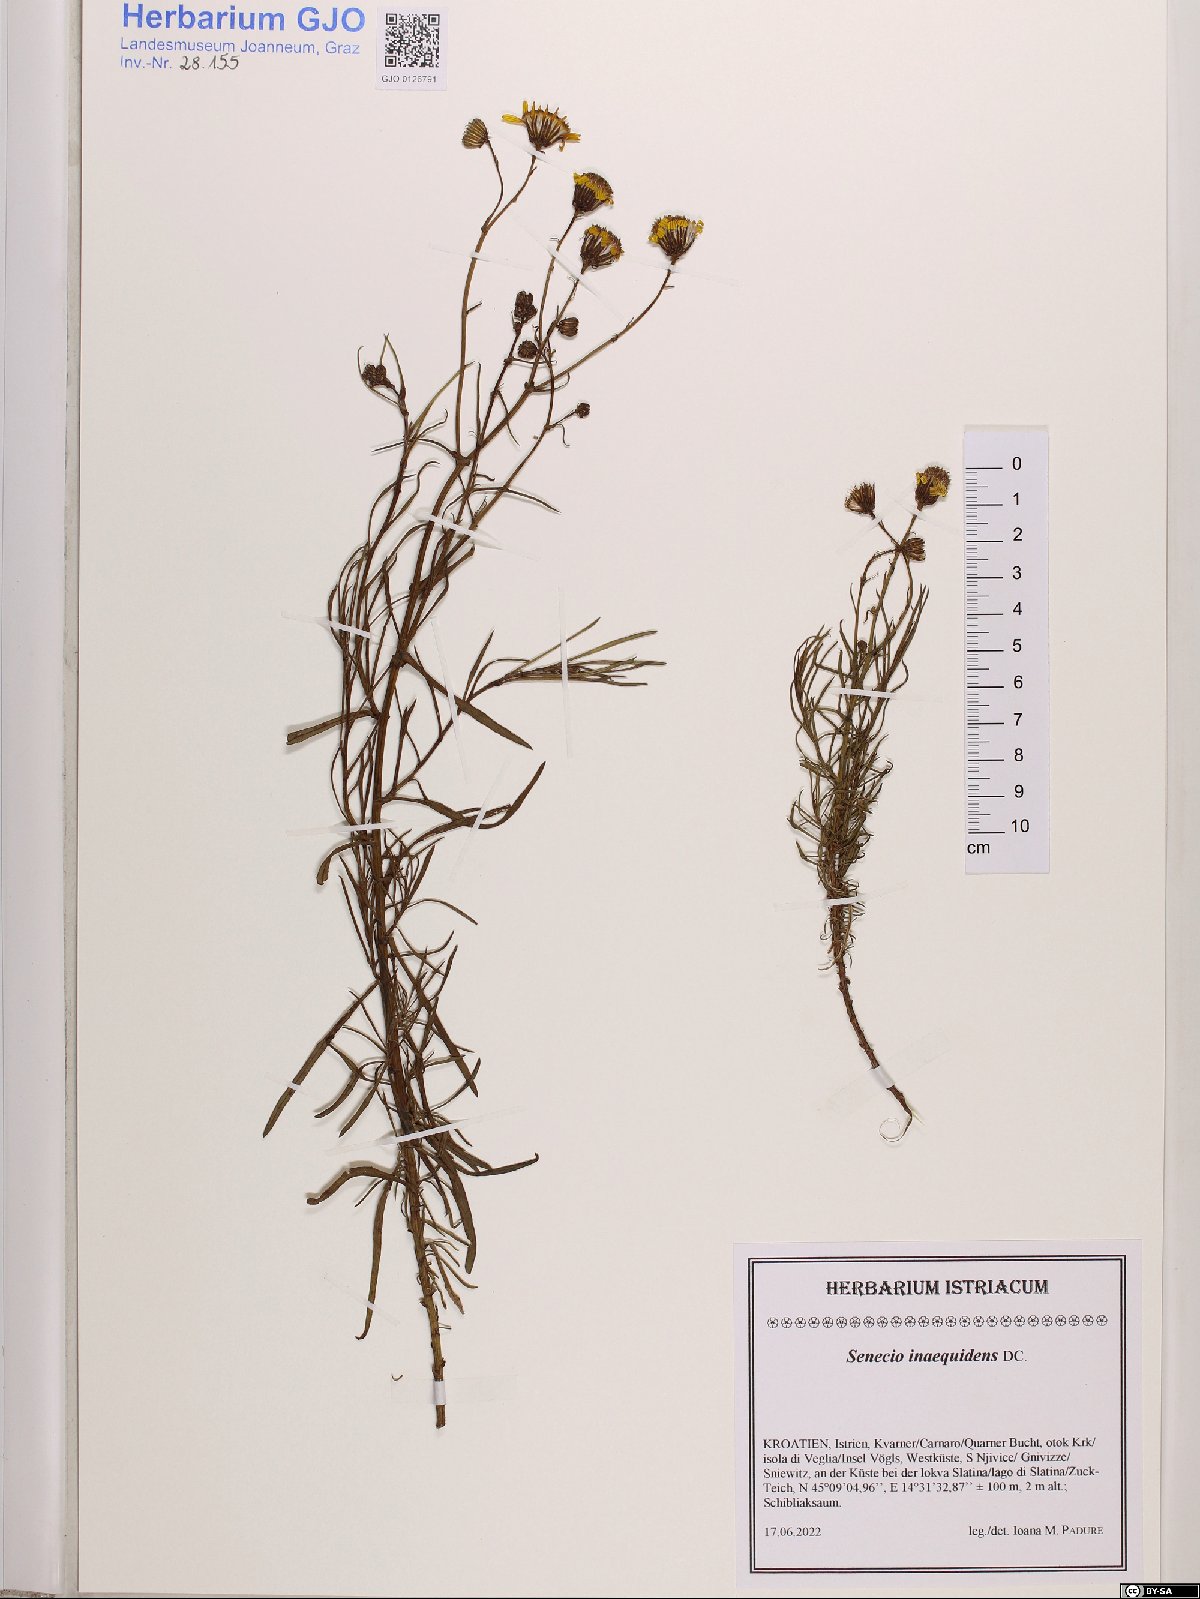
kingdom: Plantae
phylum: Tracheophyta
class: Magnoliopsida
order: Asterales
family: Asteraceae
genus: Senecio
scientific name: Senecio inaequidens
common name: Narrow-leaved ragwort
